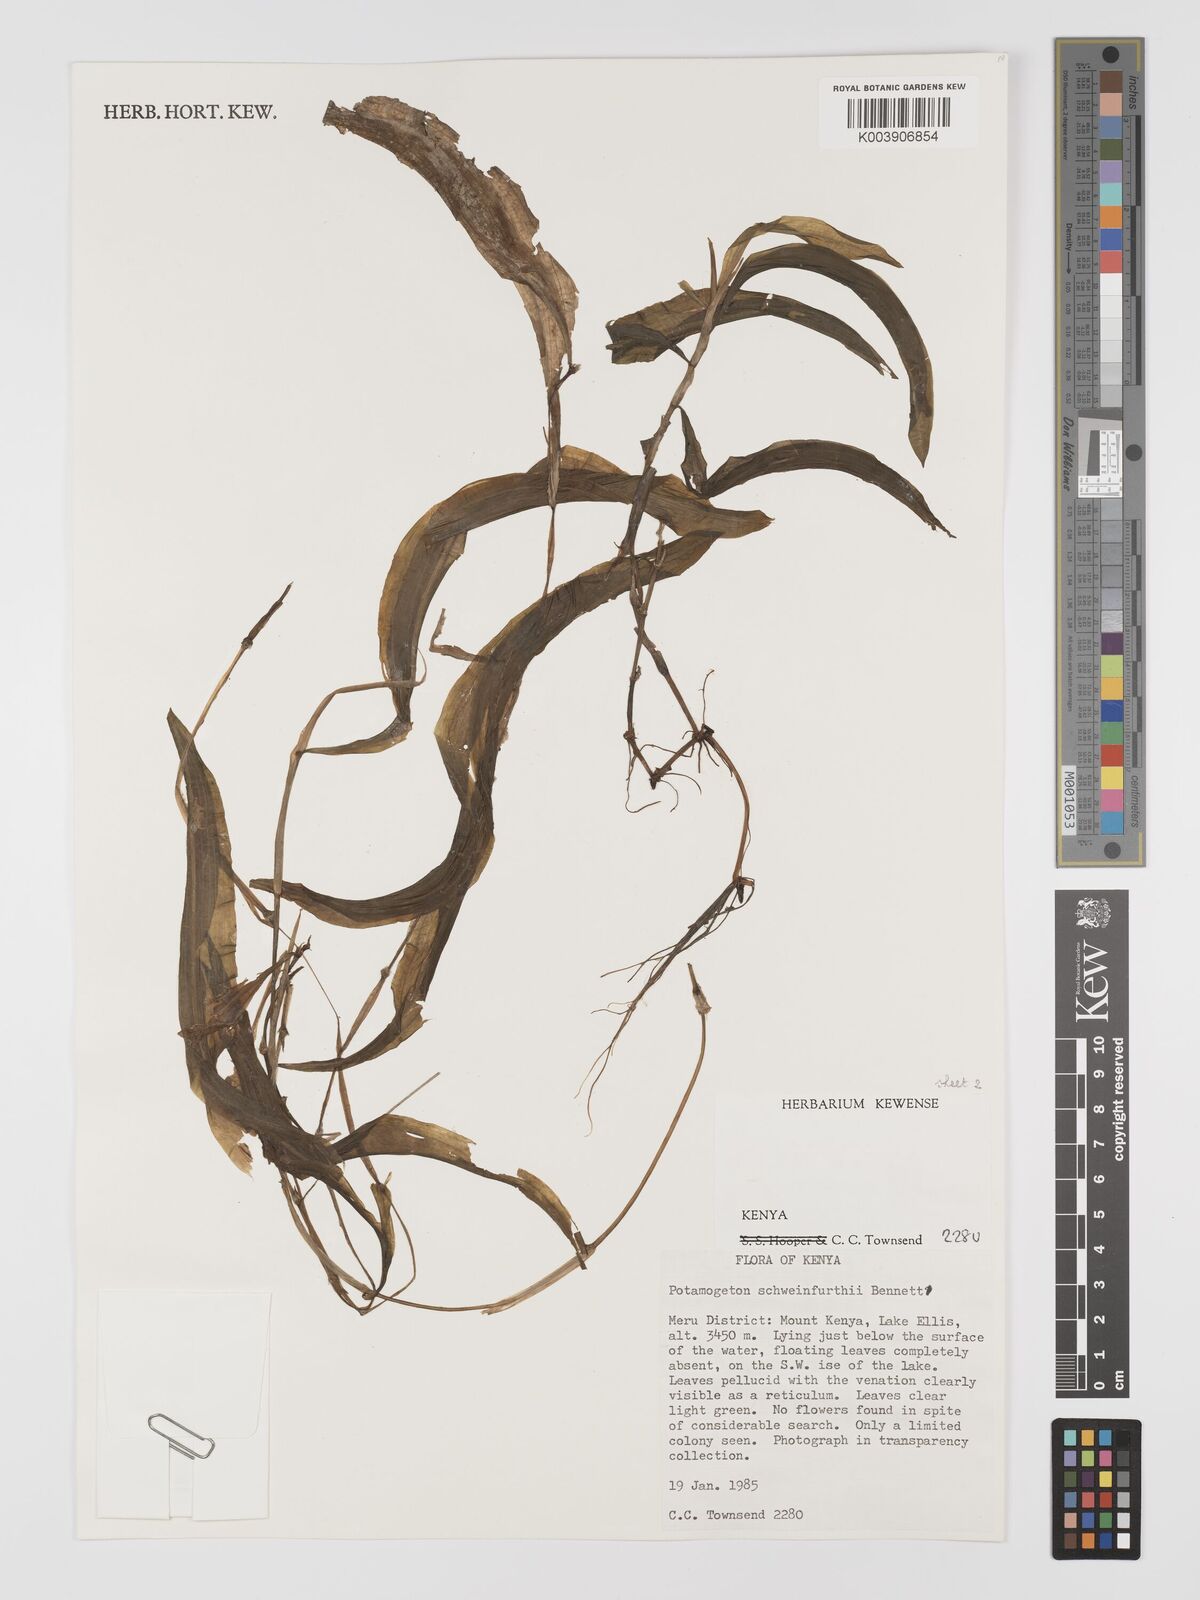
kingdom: Plantae
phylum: Tracheophyta
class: Liliopsida
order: Alismatales
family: Potamogetonaceae
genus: Potamogeton
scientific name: Potamogeton schweinfurthii
